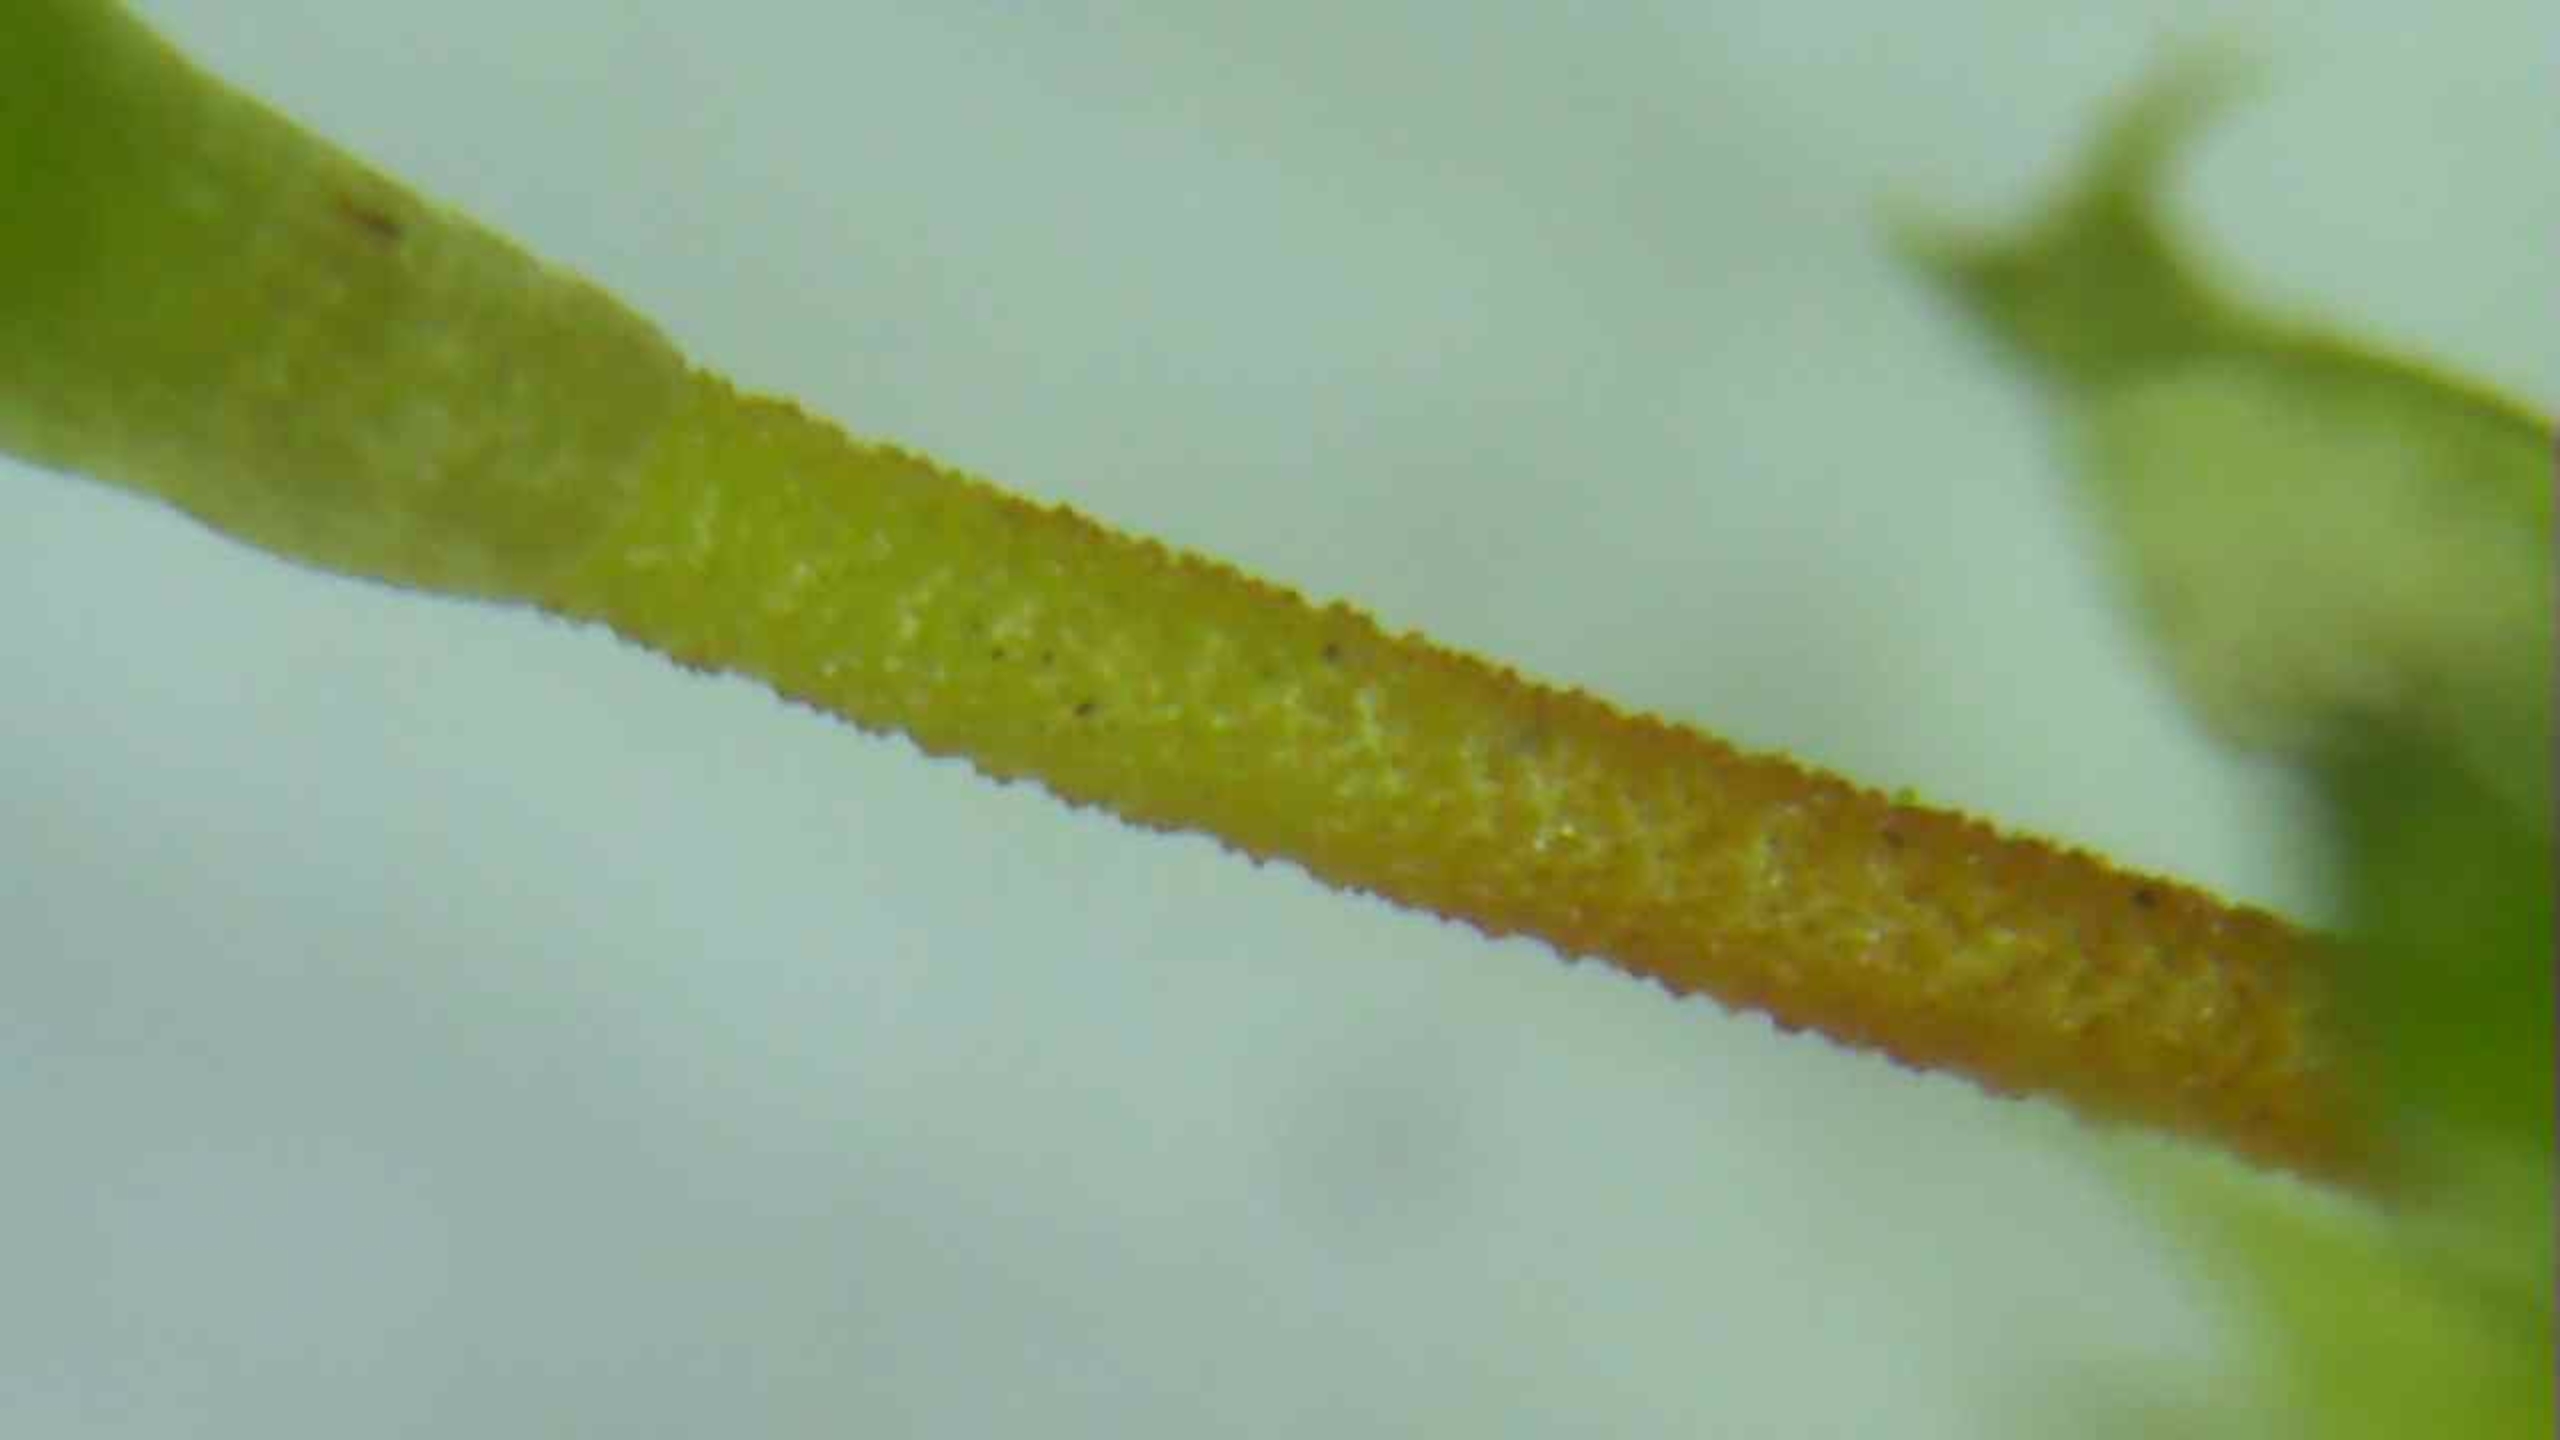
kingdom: Plantae
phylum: Bryophyta
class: Bryopsida
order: Hypnales
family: Brachytheciaceae
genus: Brachythecium
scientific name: Brachythecium rutabulum
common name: Almindelig kortkapsel
